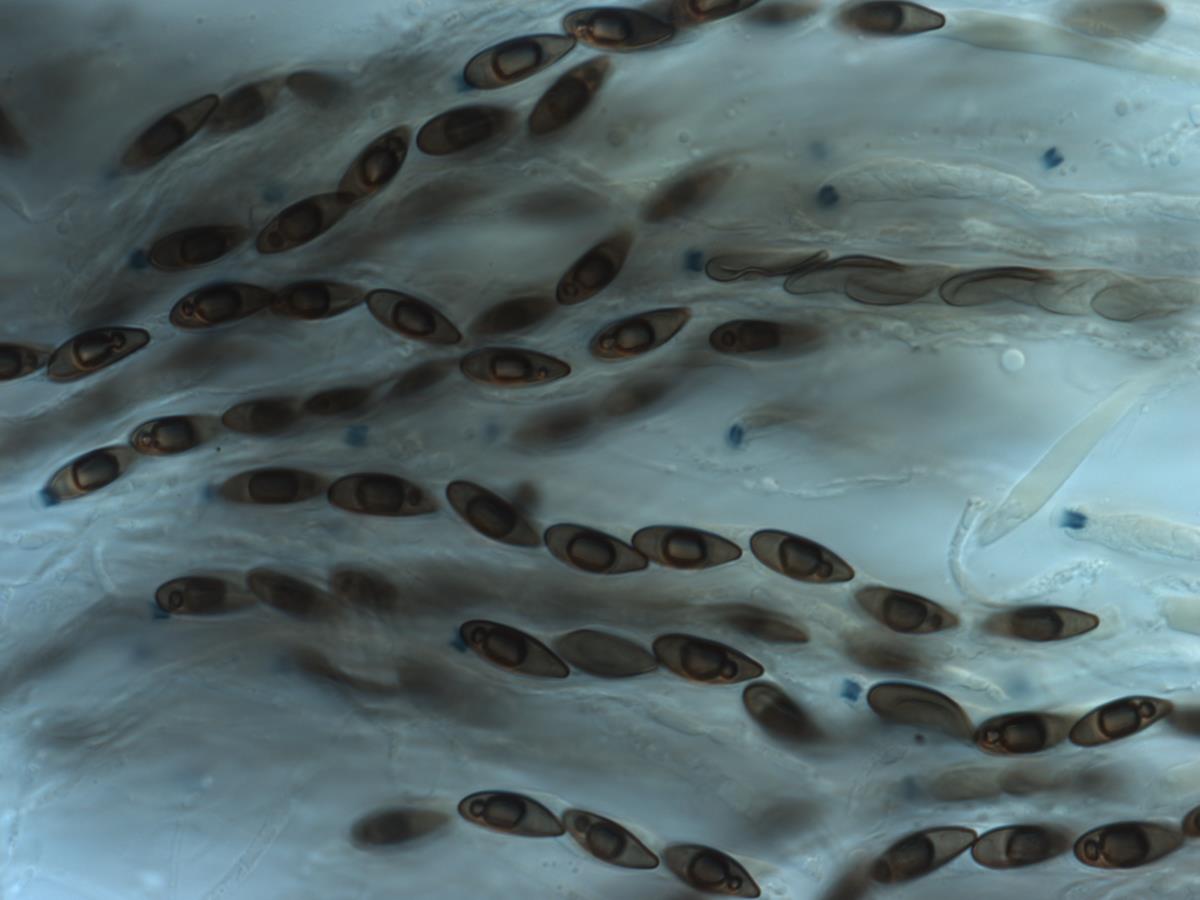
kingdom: Fungi
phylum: Ascomycota
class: Sordariomycetes
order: Xylariales
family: Hypoxylaceae
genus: Hypoxylon
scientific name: Hypoxylon
